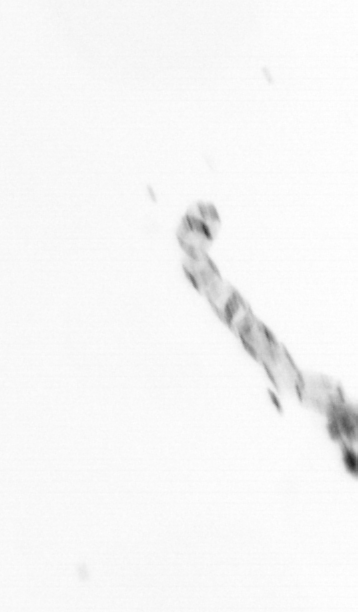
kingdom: Chromista
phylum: Ochrophyta
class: Bacillariophyceae
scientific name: Bacillariophyceae
